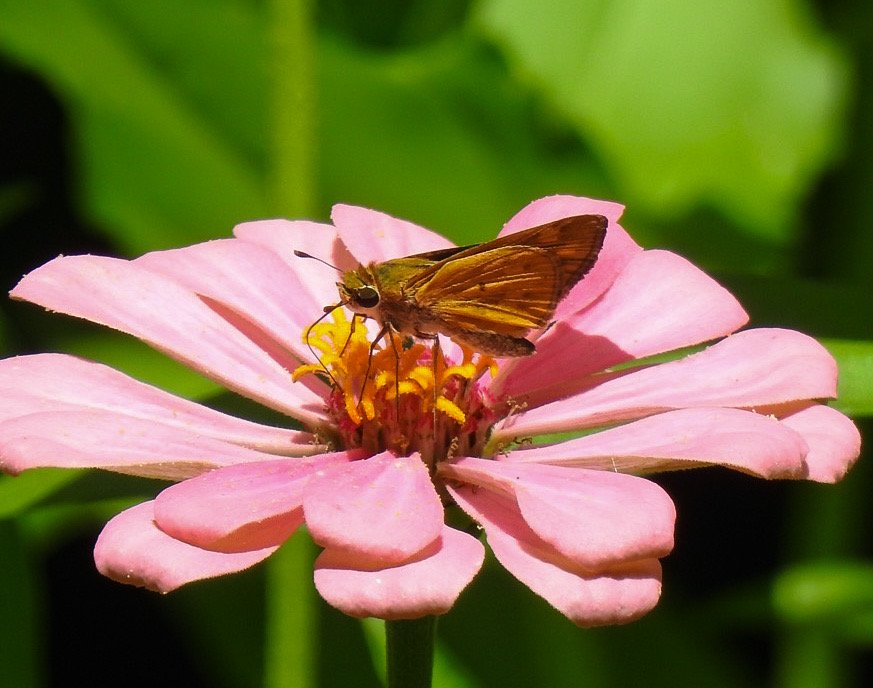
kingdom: Animalia
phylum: Arthropoda
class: Insecta
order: Lepidoptera
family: Hesperiidae
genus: Hylephila
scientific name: Hylephila phyleus
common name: Fiery Skipper
